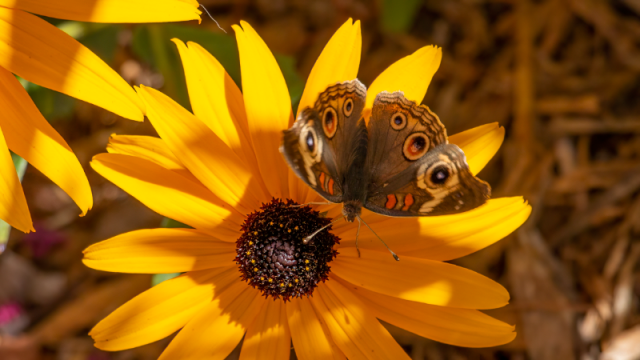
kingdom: Animalia
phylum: Arthropoda
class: Insecta
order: Lepidoptera
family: Nymphalidae
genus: Junonia
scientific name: Junonia coenia
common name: Common Buckeye
